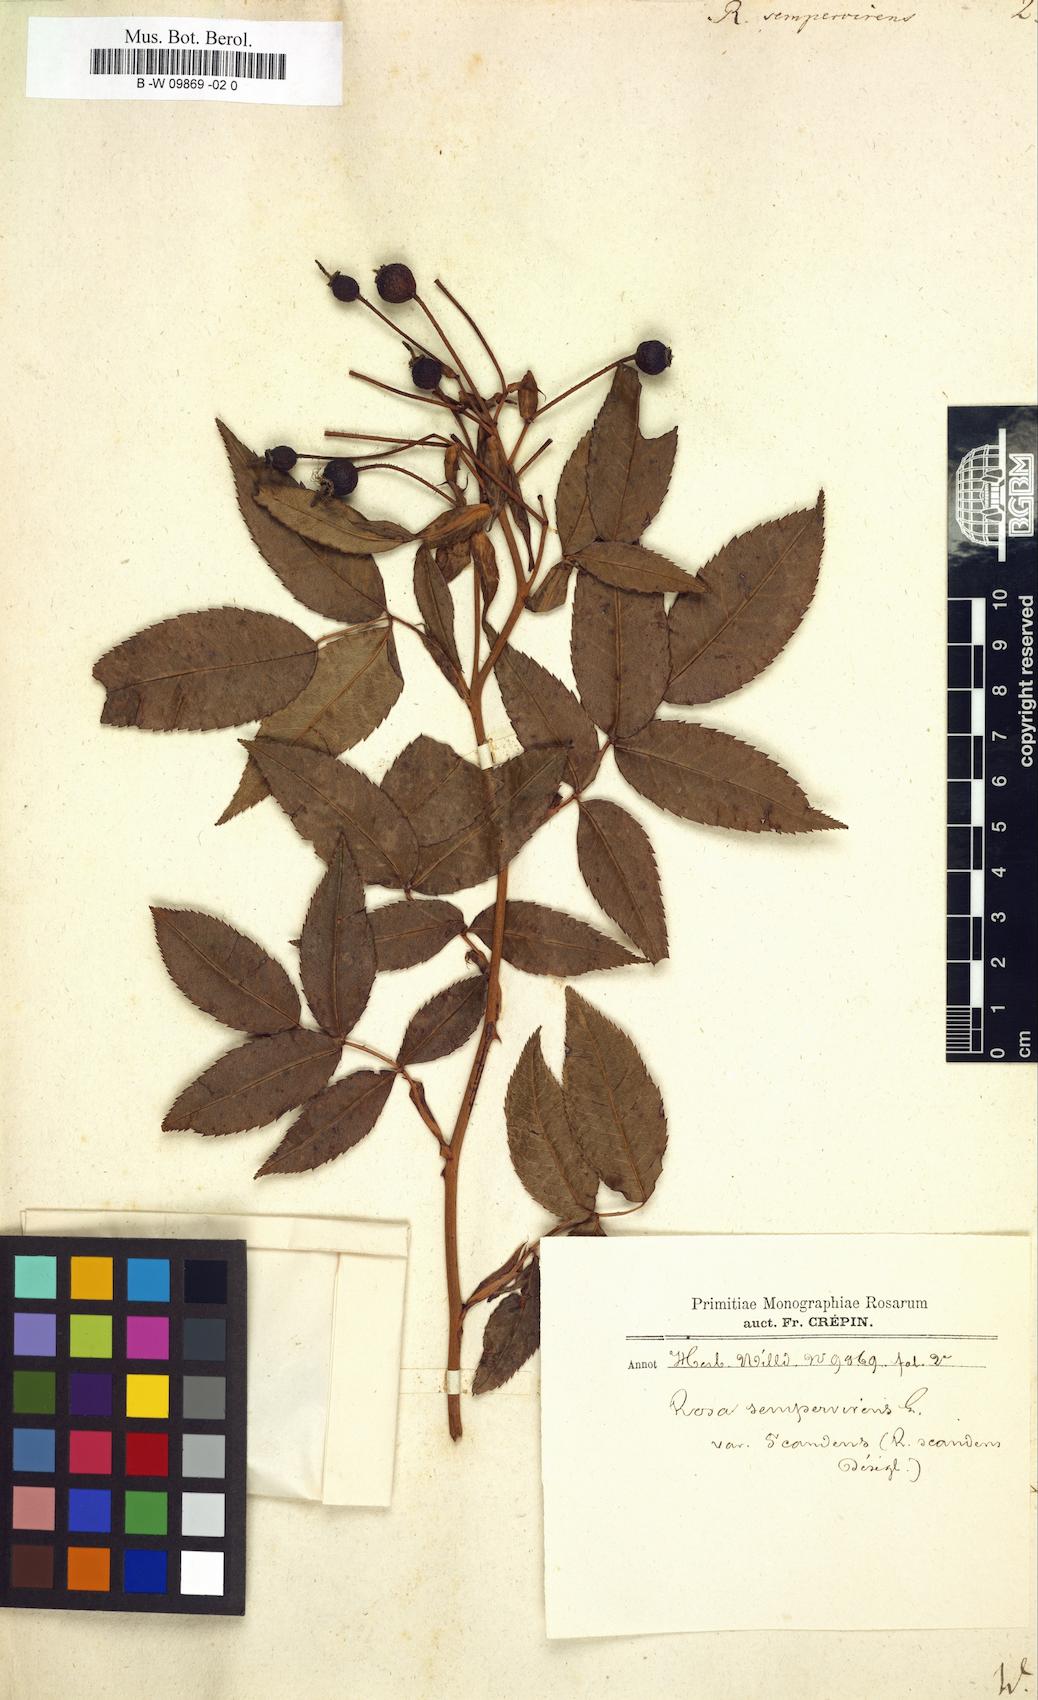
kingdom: Plantae
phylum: Tracheophyta
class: Magnoliopsida
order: Rosales
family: Rosaceae
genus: Rosa
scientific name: Rosa sempervirens
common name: Evergreen rose
